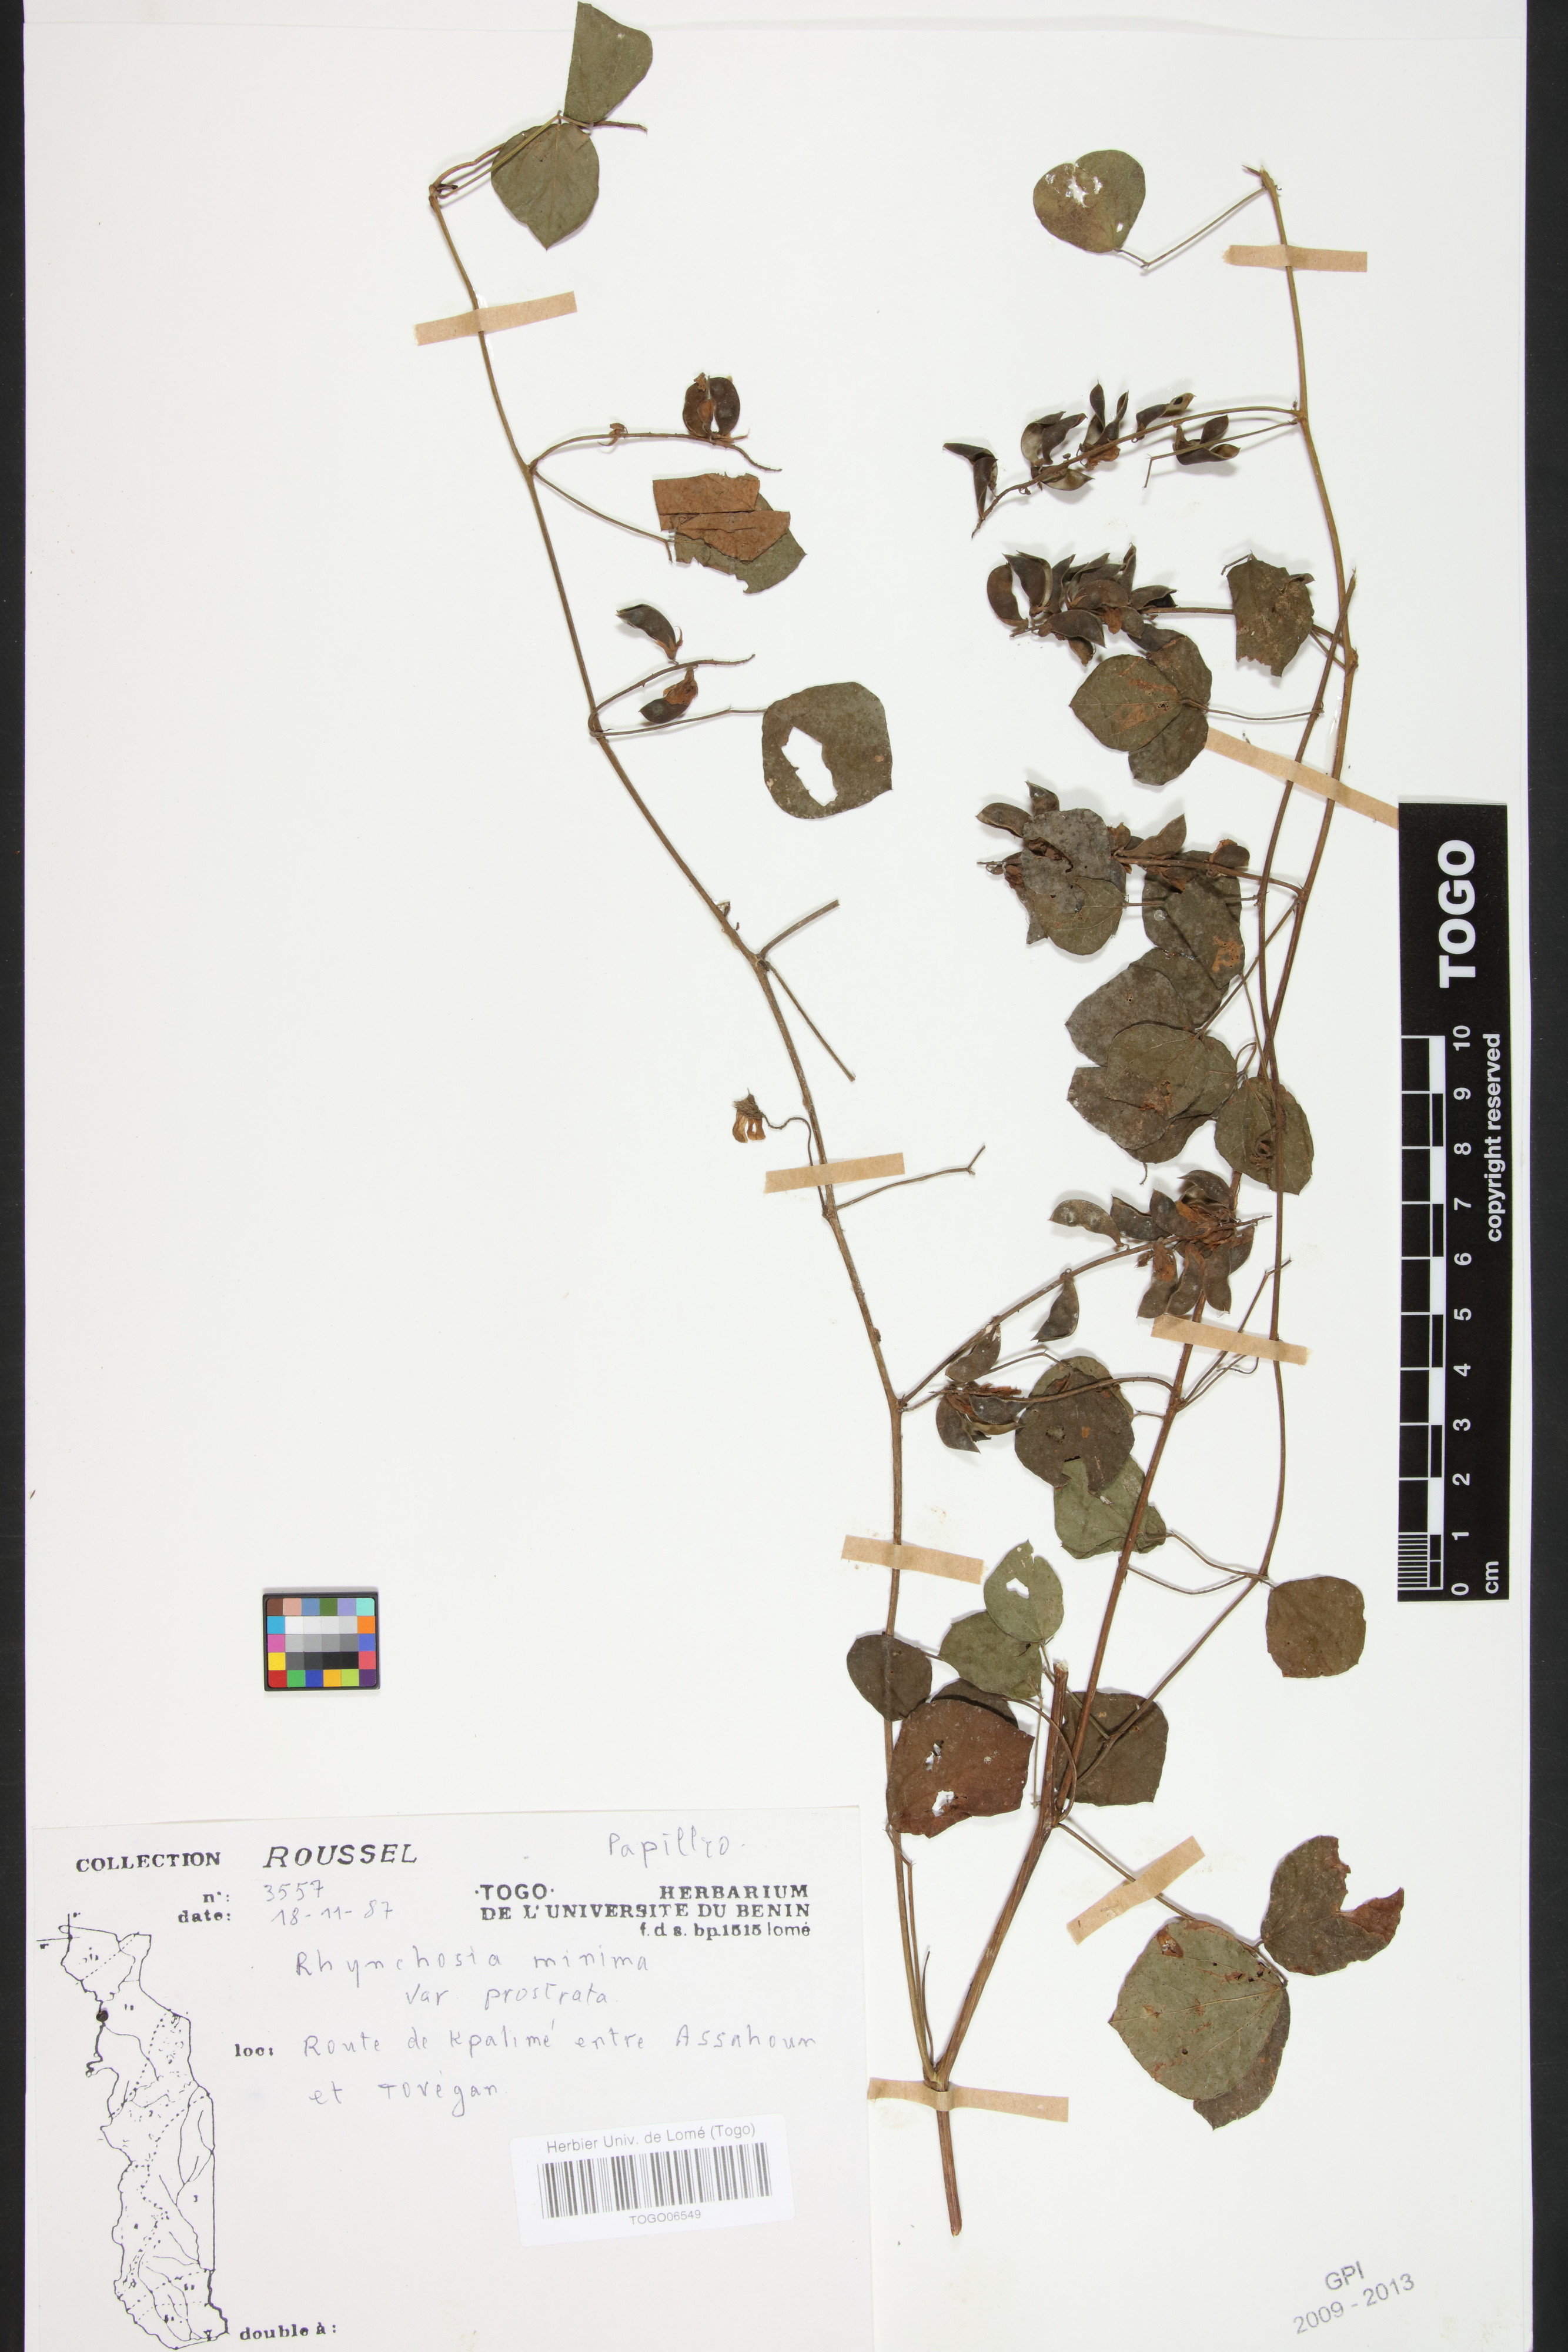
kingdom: Plantae
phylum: Tracheophyta
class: Magnoliopsida
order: Fabales
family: Fabaceae
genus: Rhynchosia
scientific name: Rhynchosia minima
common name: Least snoutbean
